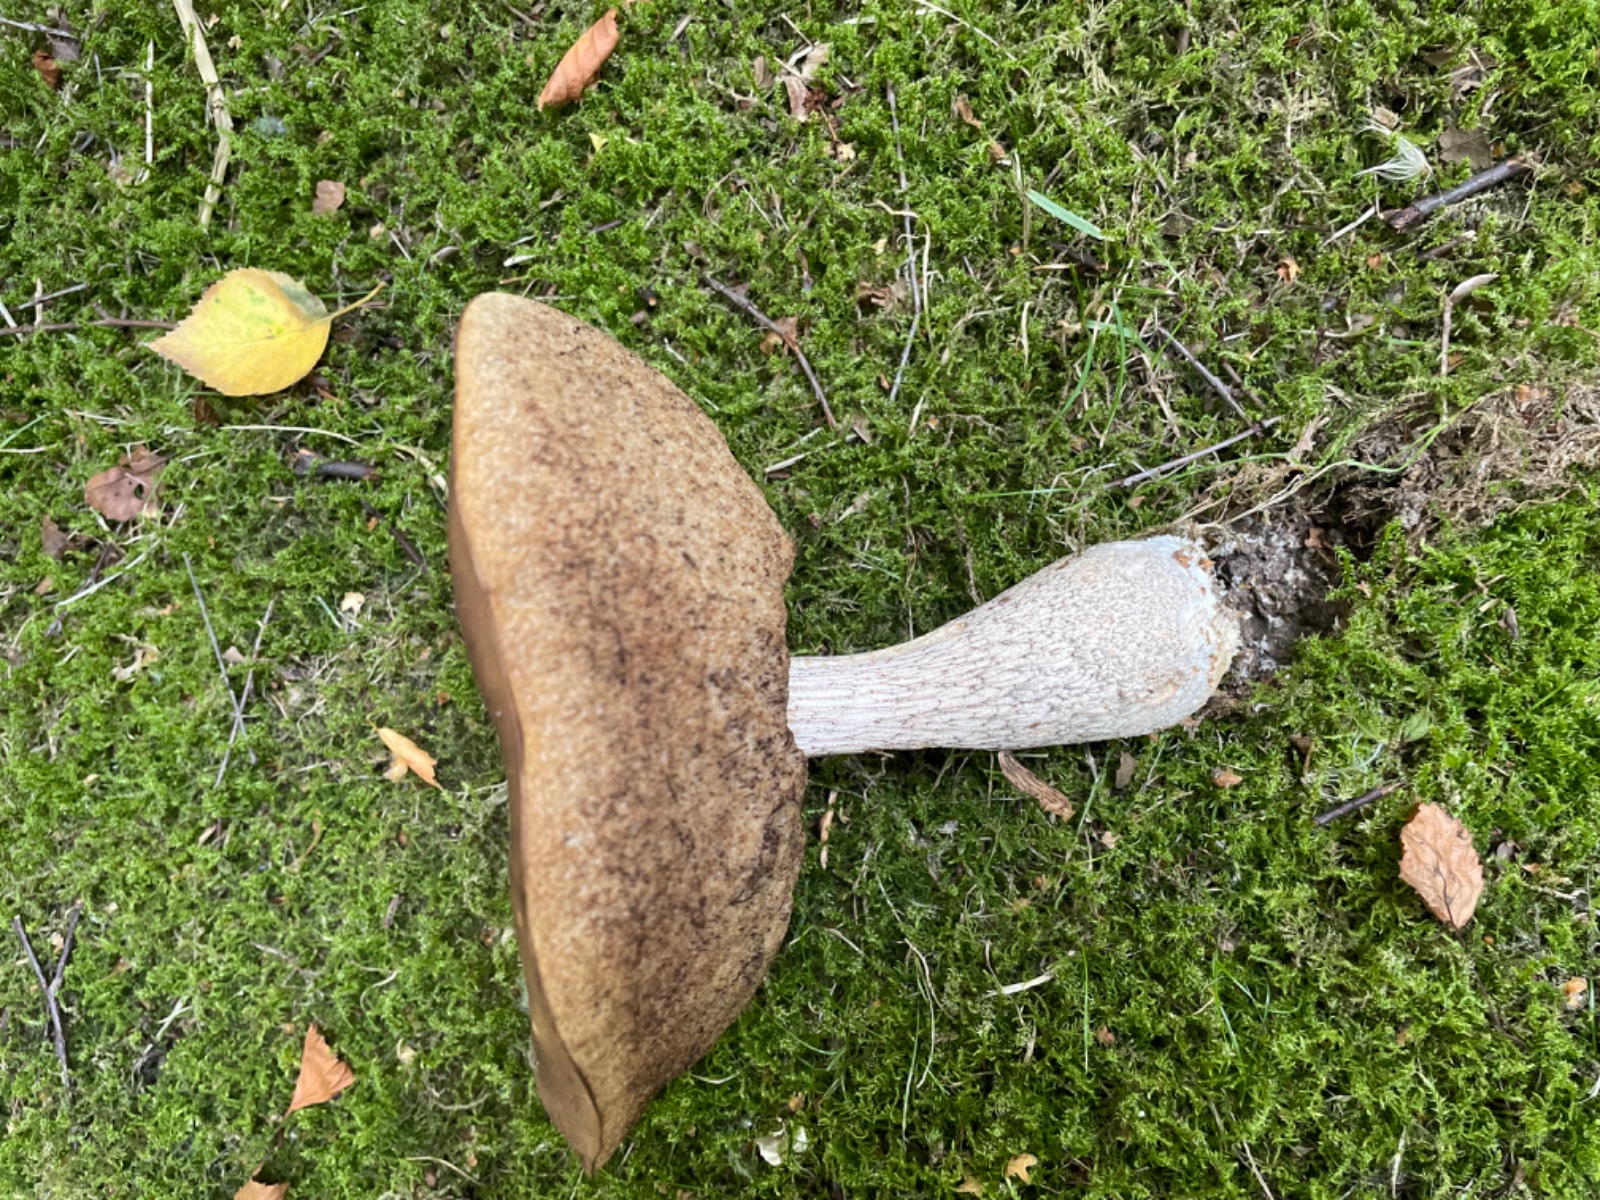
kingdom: Fungi
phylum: Basidiomycota
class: Agaricomycetes
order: Boletales
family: Boletaceae
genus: Leccinum
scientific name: Leccinum scabrum
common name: brun skælrørhat
